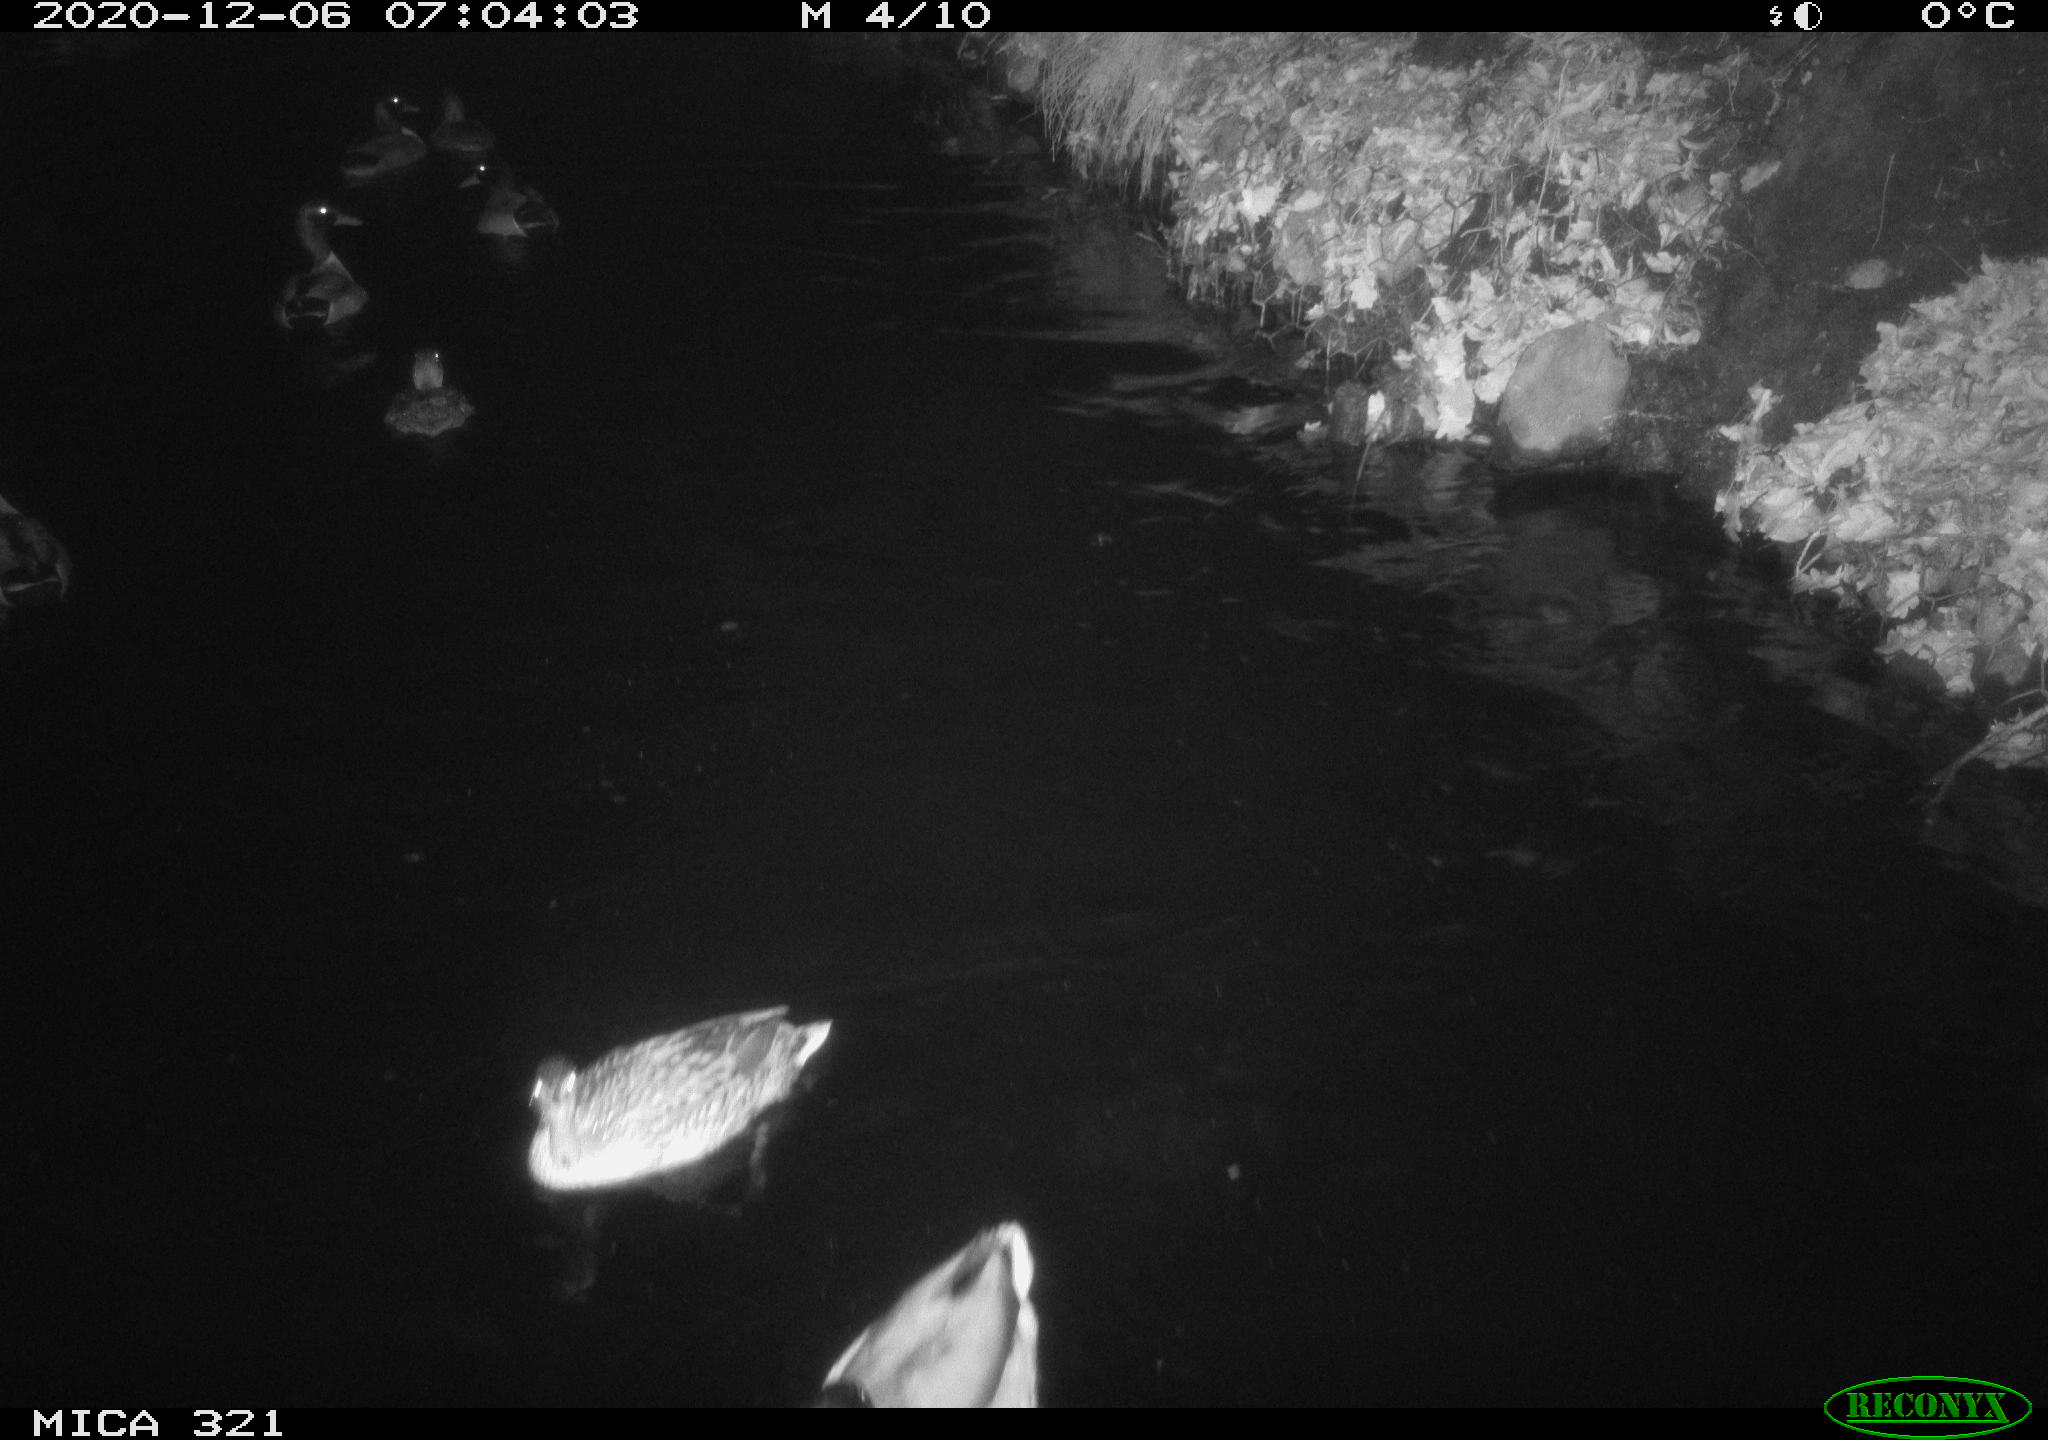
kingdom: Animalia
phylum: Chordata
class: Aves
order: Anseriformes
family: Anatidae
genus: Anas
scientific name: Anas platyrhynchos
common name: Mallard
